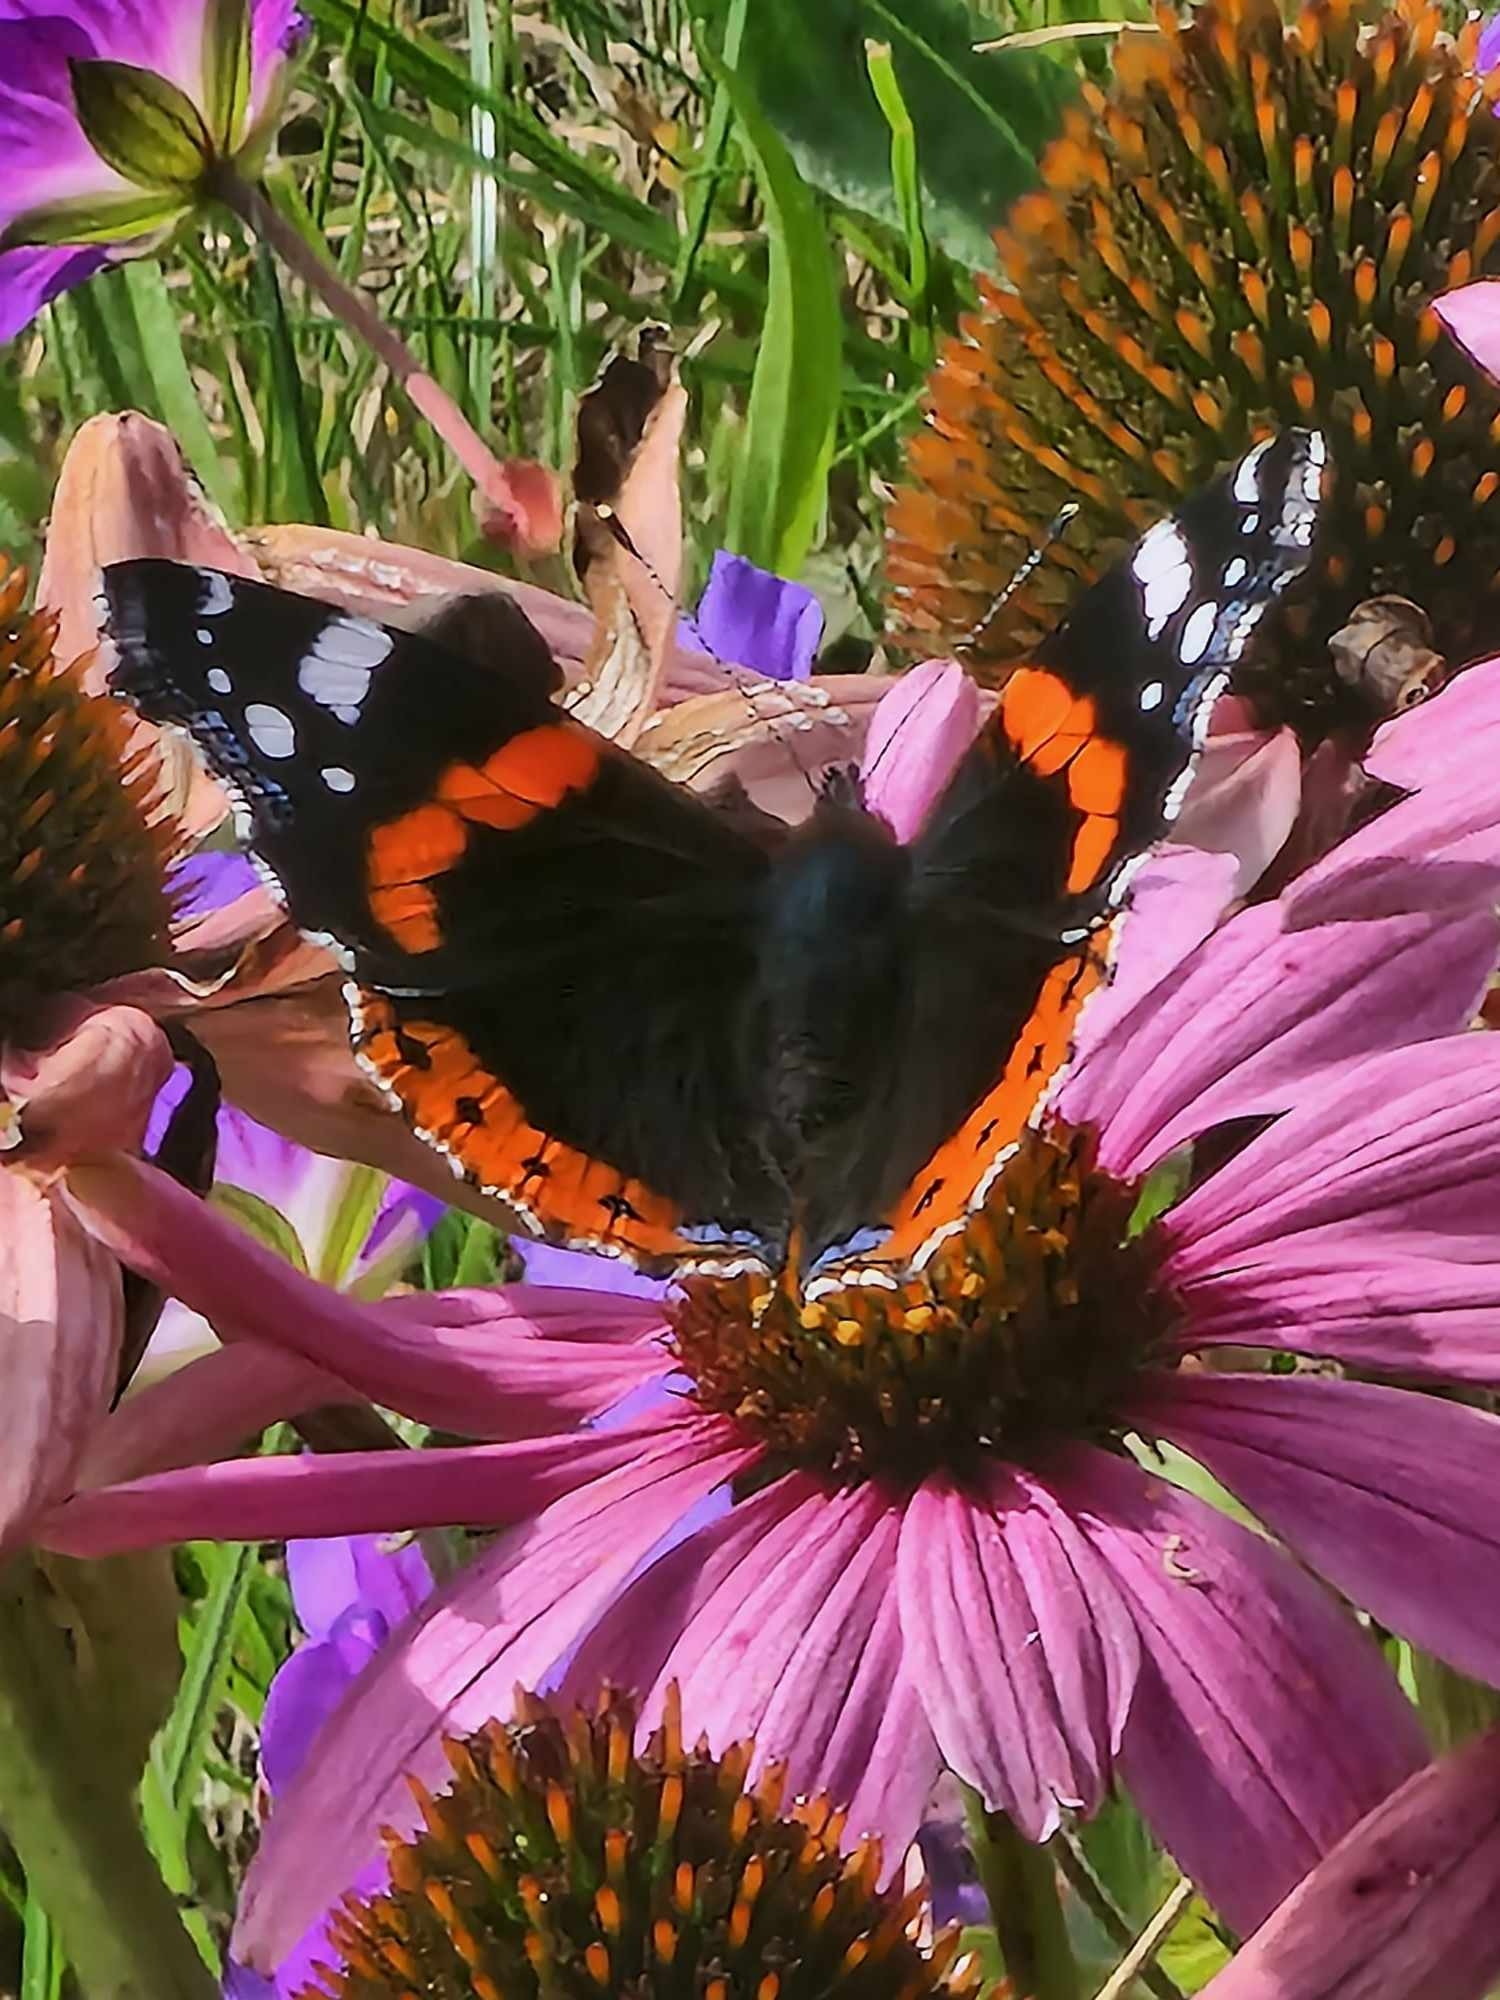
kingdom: Animalia
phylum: Arthropoda
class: Insecta
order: Lepidoptera
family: Nymphalidae
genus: Vanessa
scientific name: Vanessa atalanta
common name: Admiral
